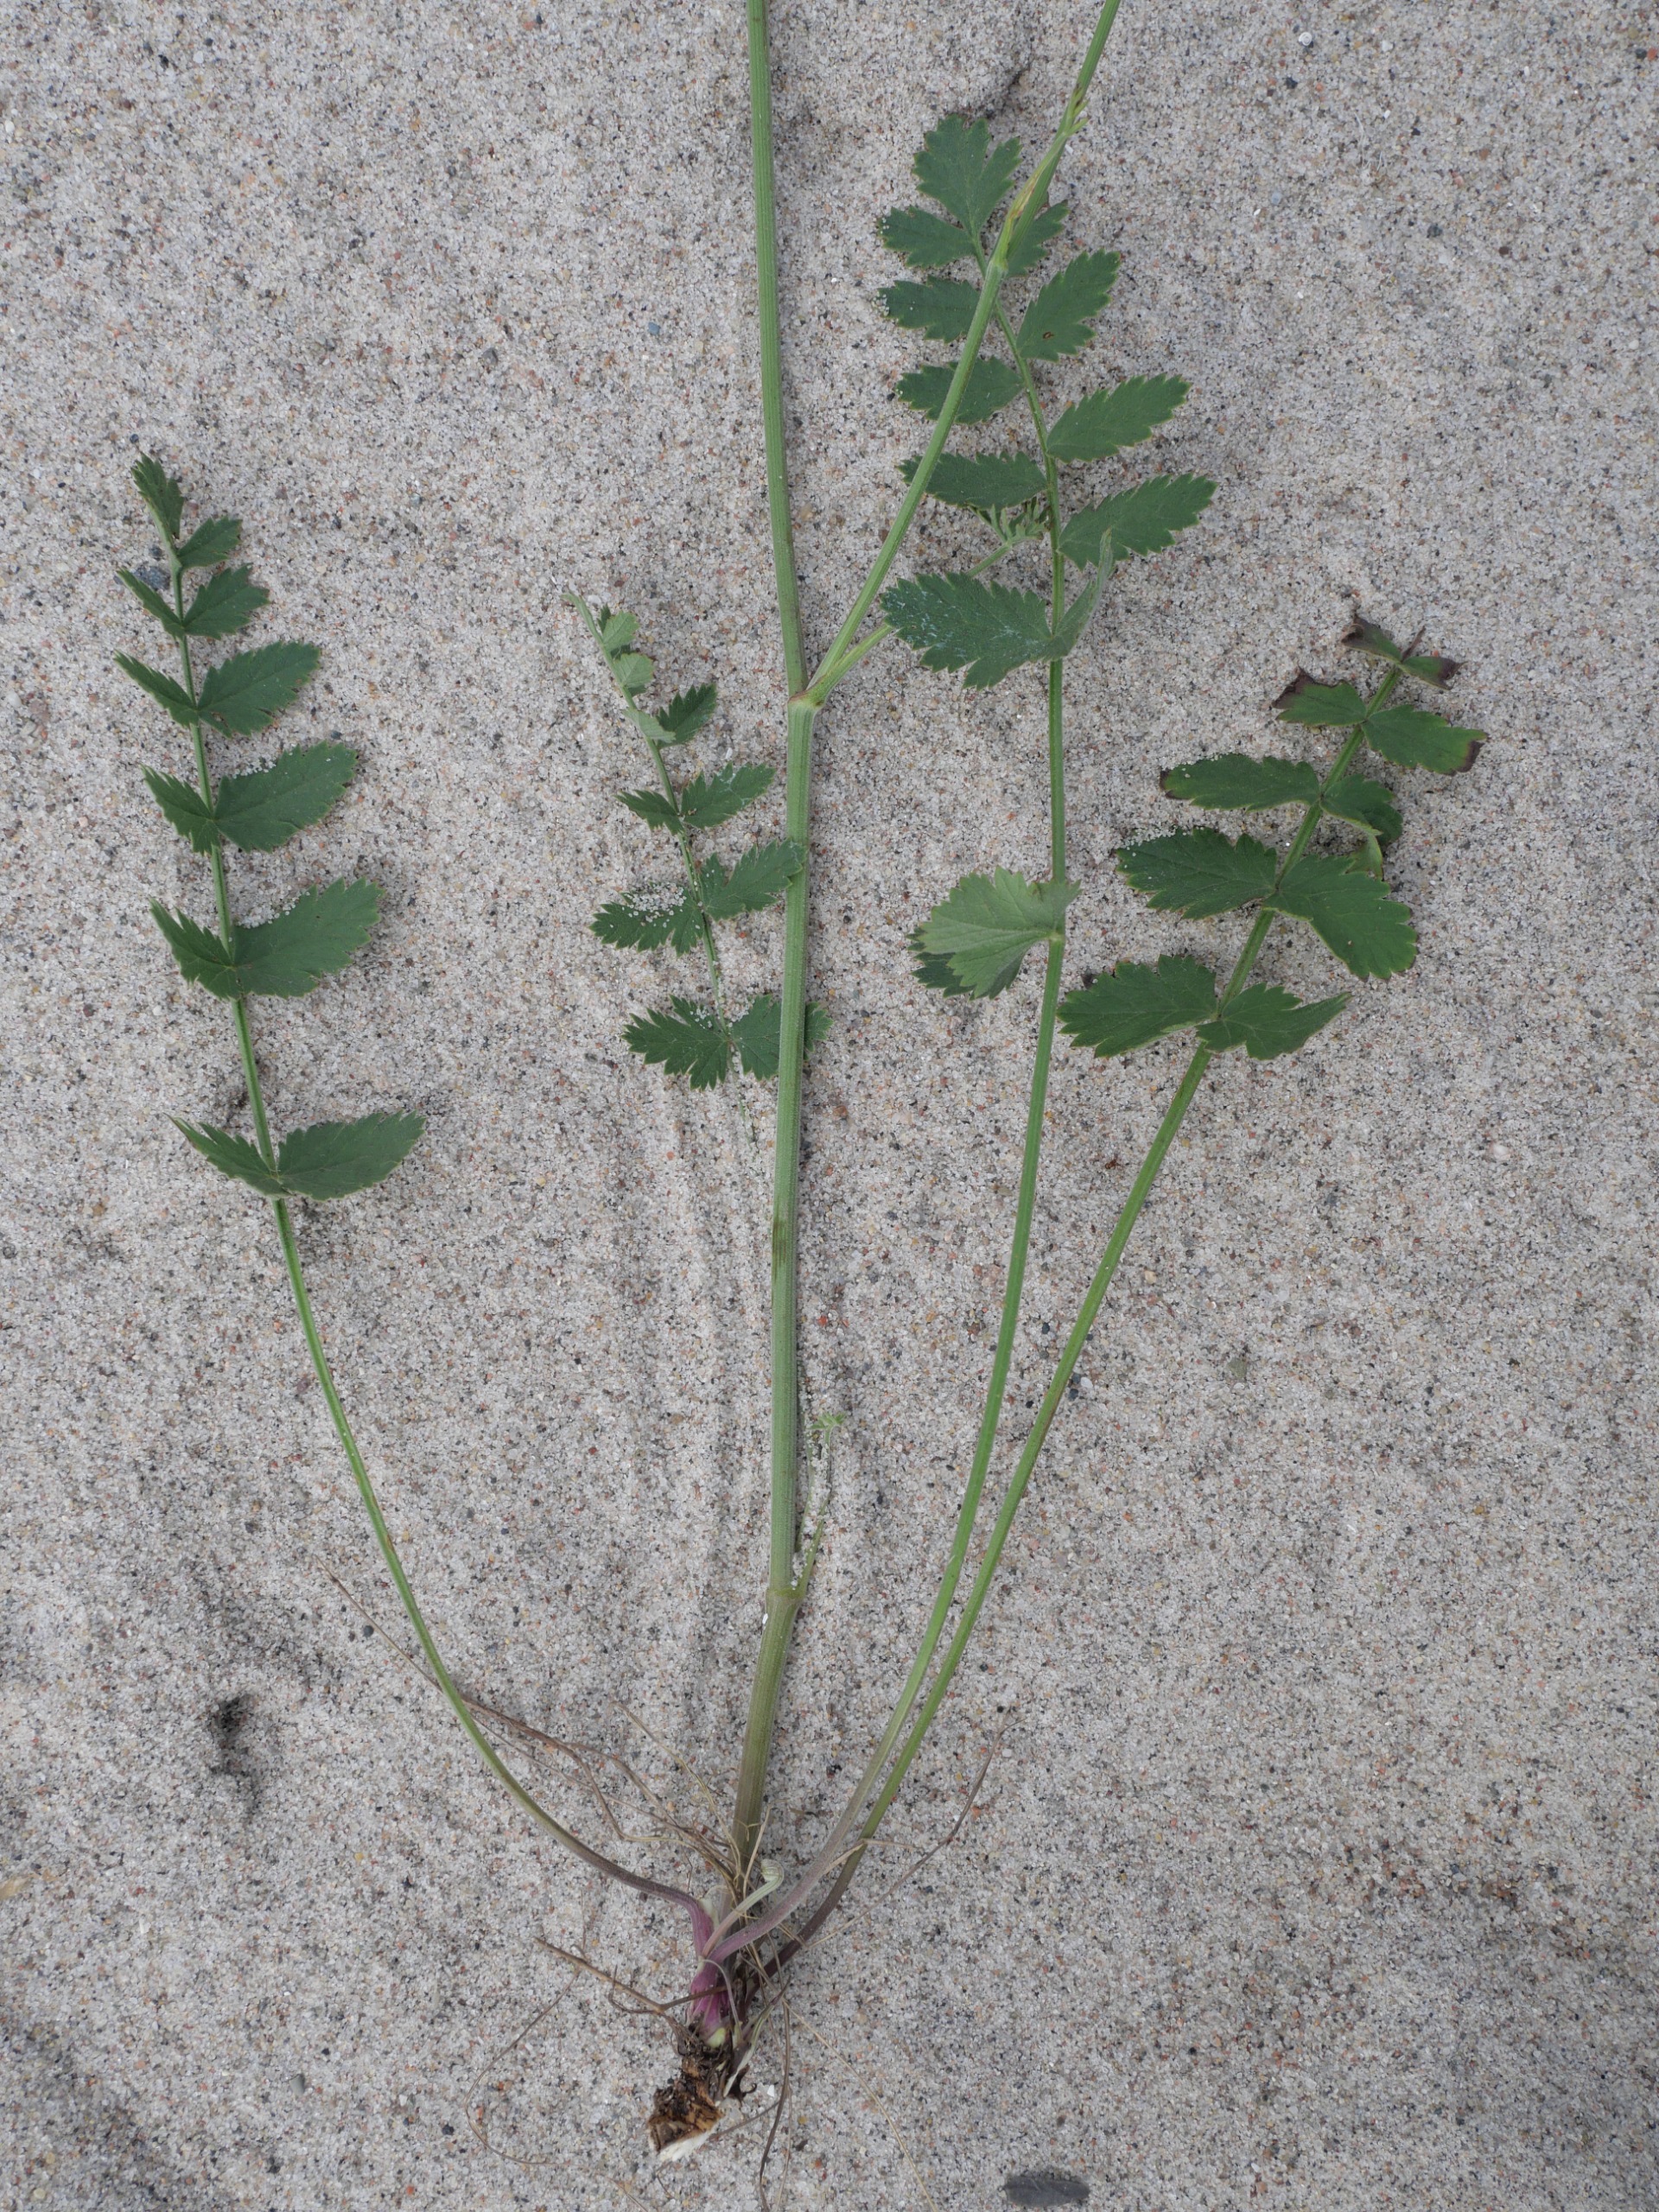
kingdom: Plantae
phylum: Tracheophyta
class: Magnoliopsida
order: Apiales
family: Apiaceae
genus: Pimpinella
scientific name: Pimpinella saxifraga
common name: Almindelig pimpinelle
